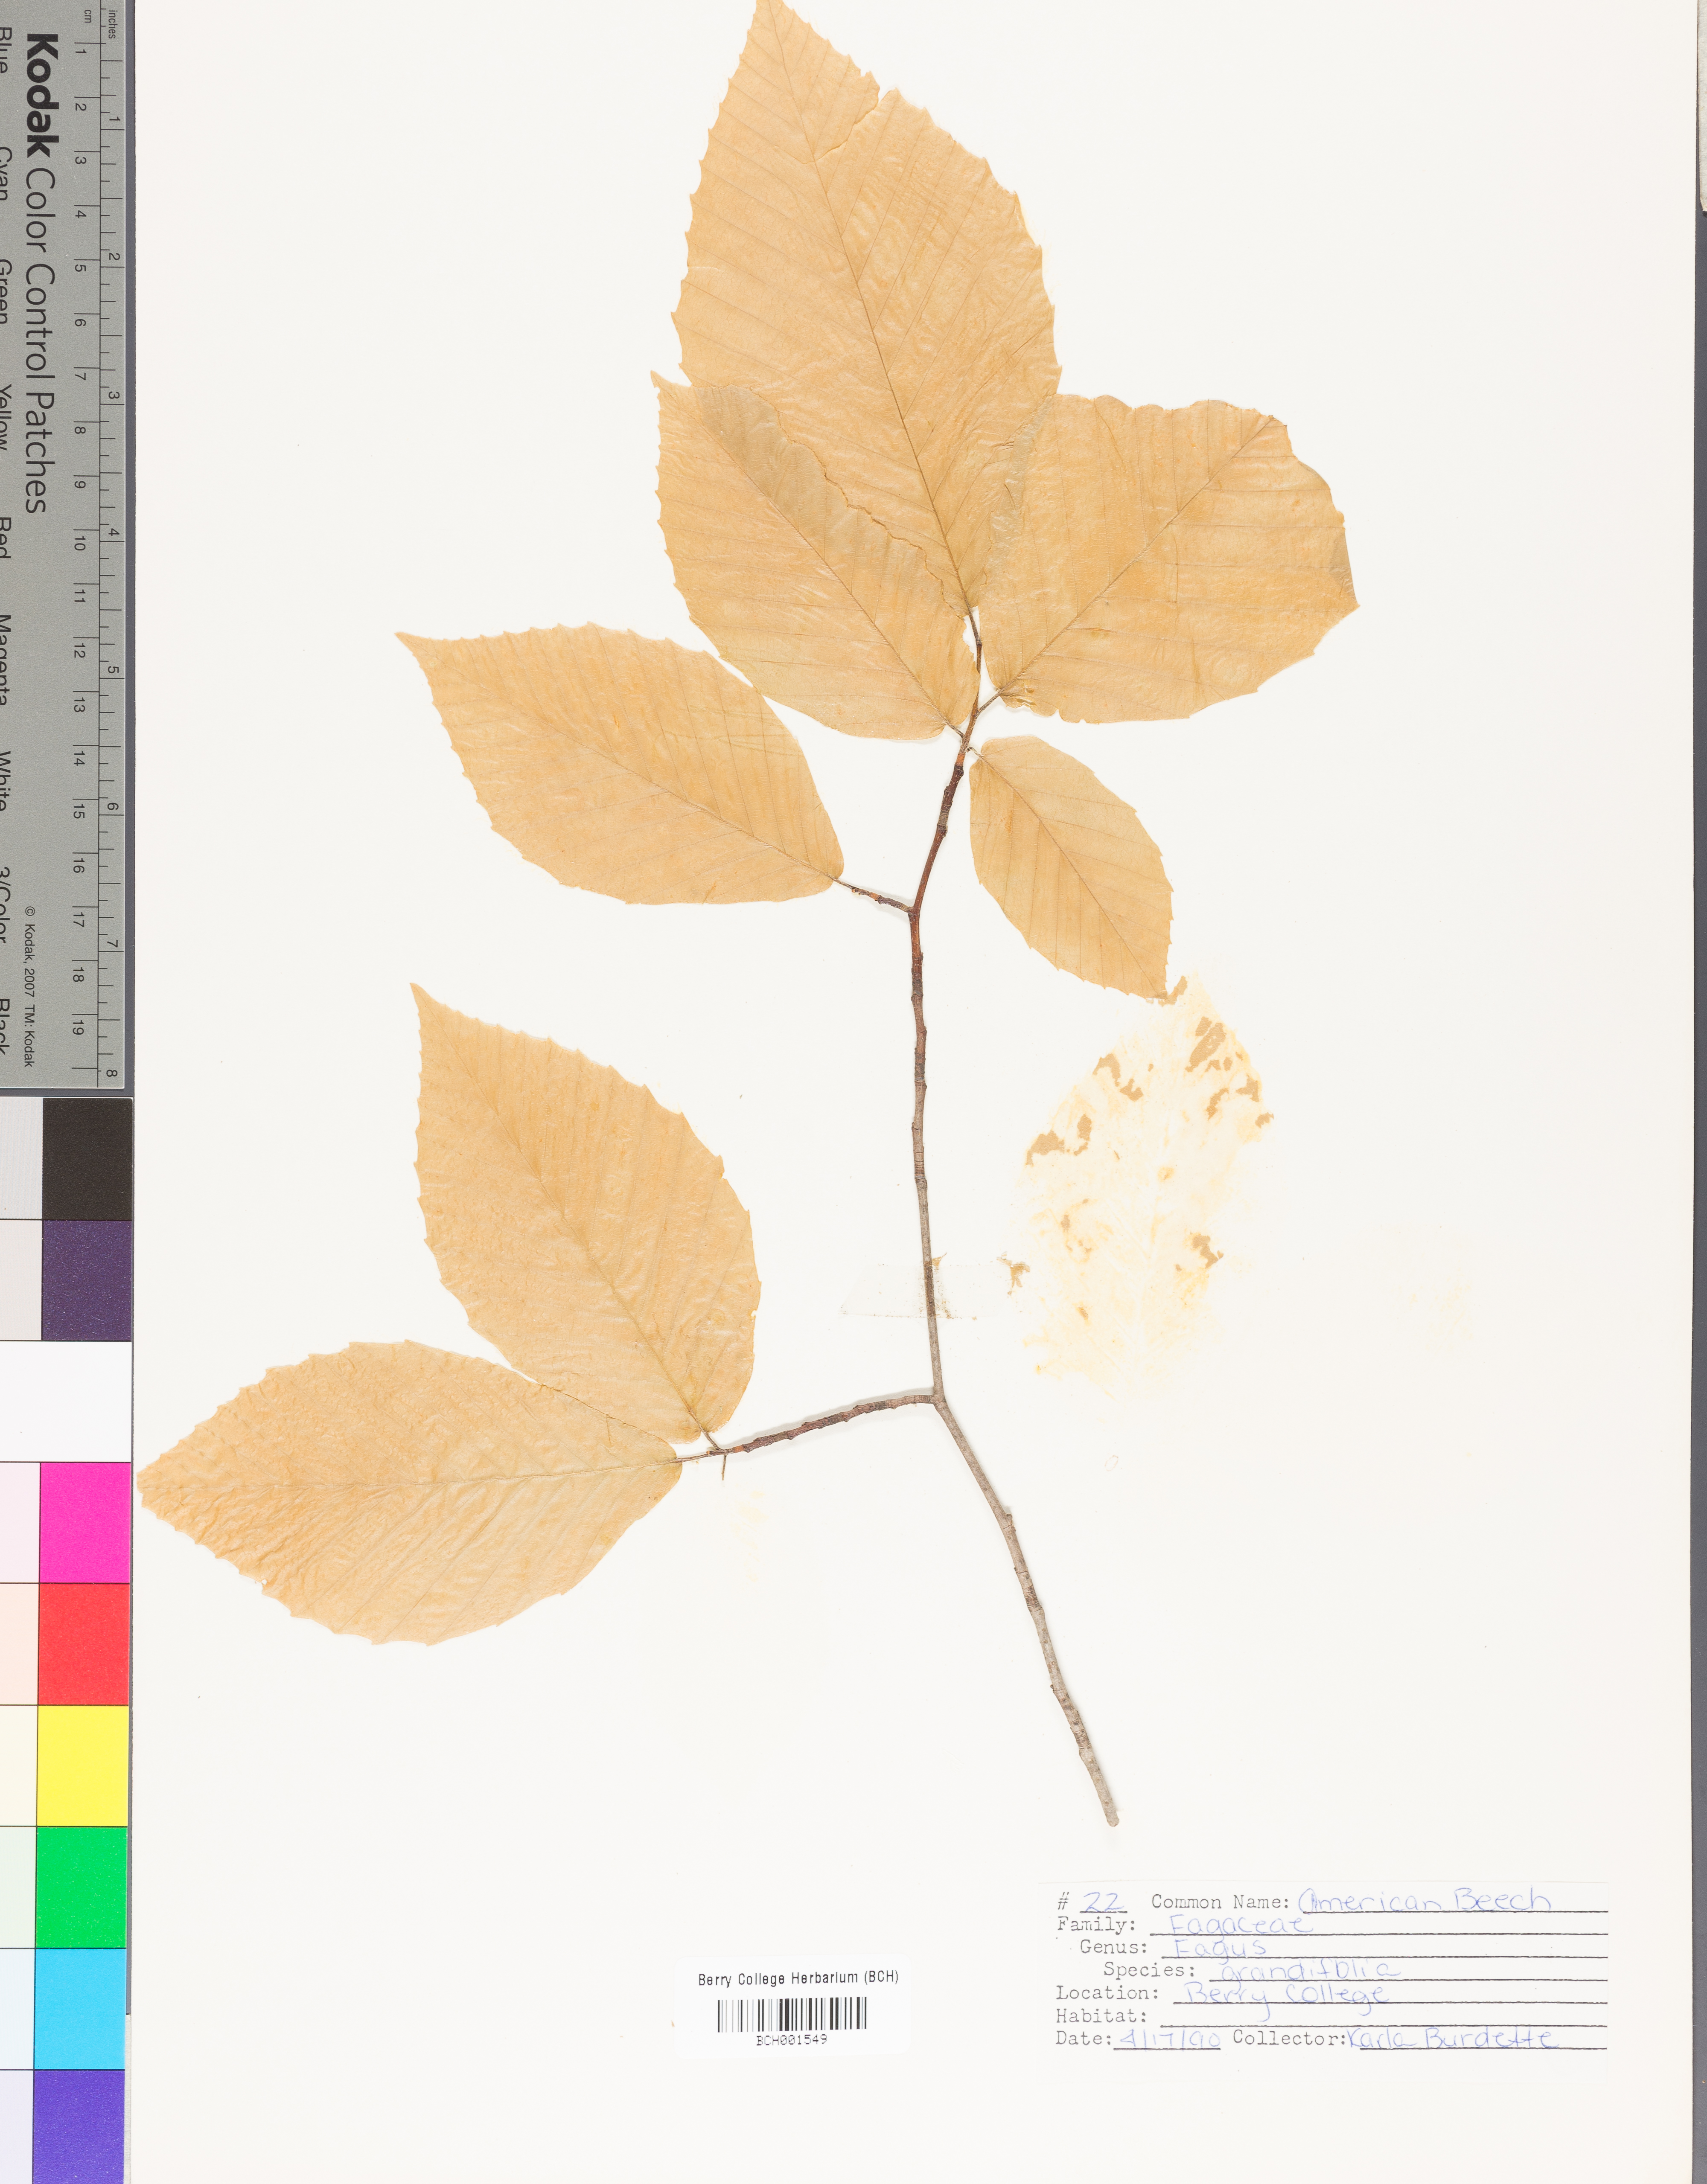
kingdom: Plantae
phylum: Tracheophyta
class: Magnoliopsida
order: Fagales
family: Fagaceae
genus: Fagus
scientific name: Fagus grandifolia
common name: American beech
